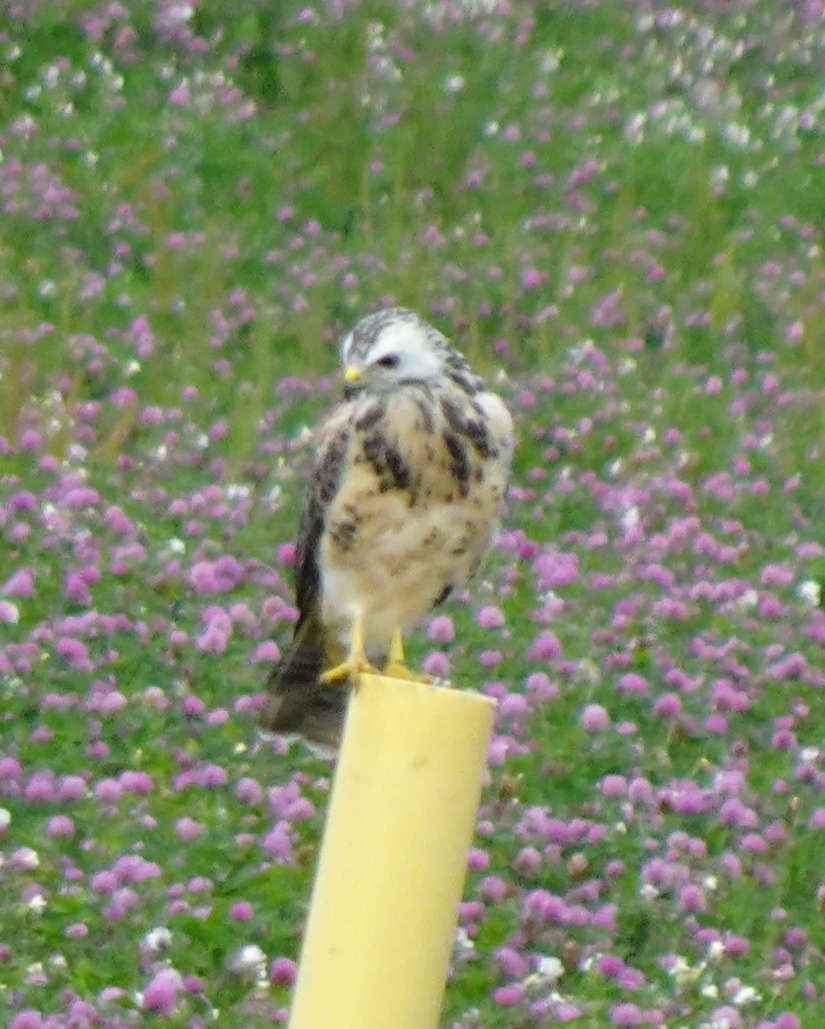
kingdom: Animalia
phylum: Chordata
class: Aves
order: Accipitriformes
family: Accipitridae
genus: Buteo
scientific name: Buteo buteo
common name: Musvåge
